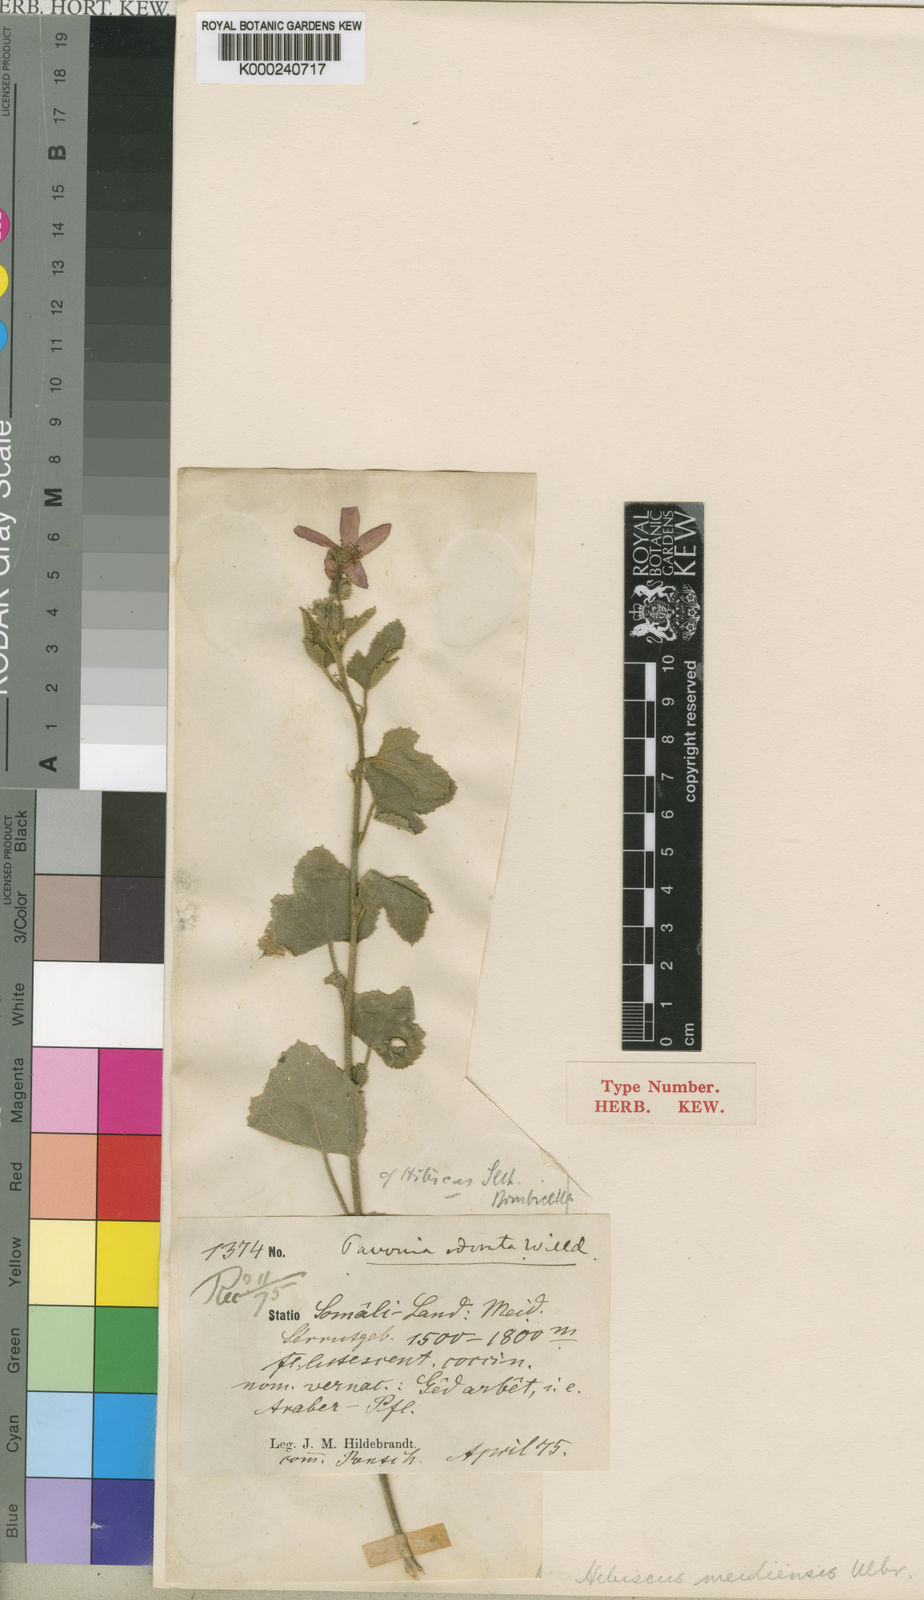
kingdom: Plantae
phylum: Tracheophyta
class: Magnoliopsida
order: Malvales
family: Malvaceae
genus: Hibiscus
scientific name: Hibiscus purpureus
